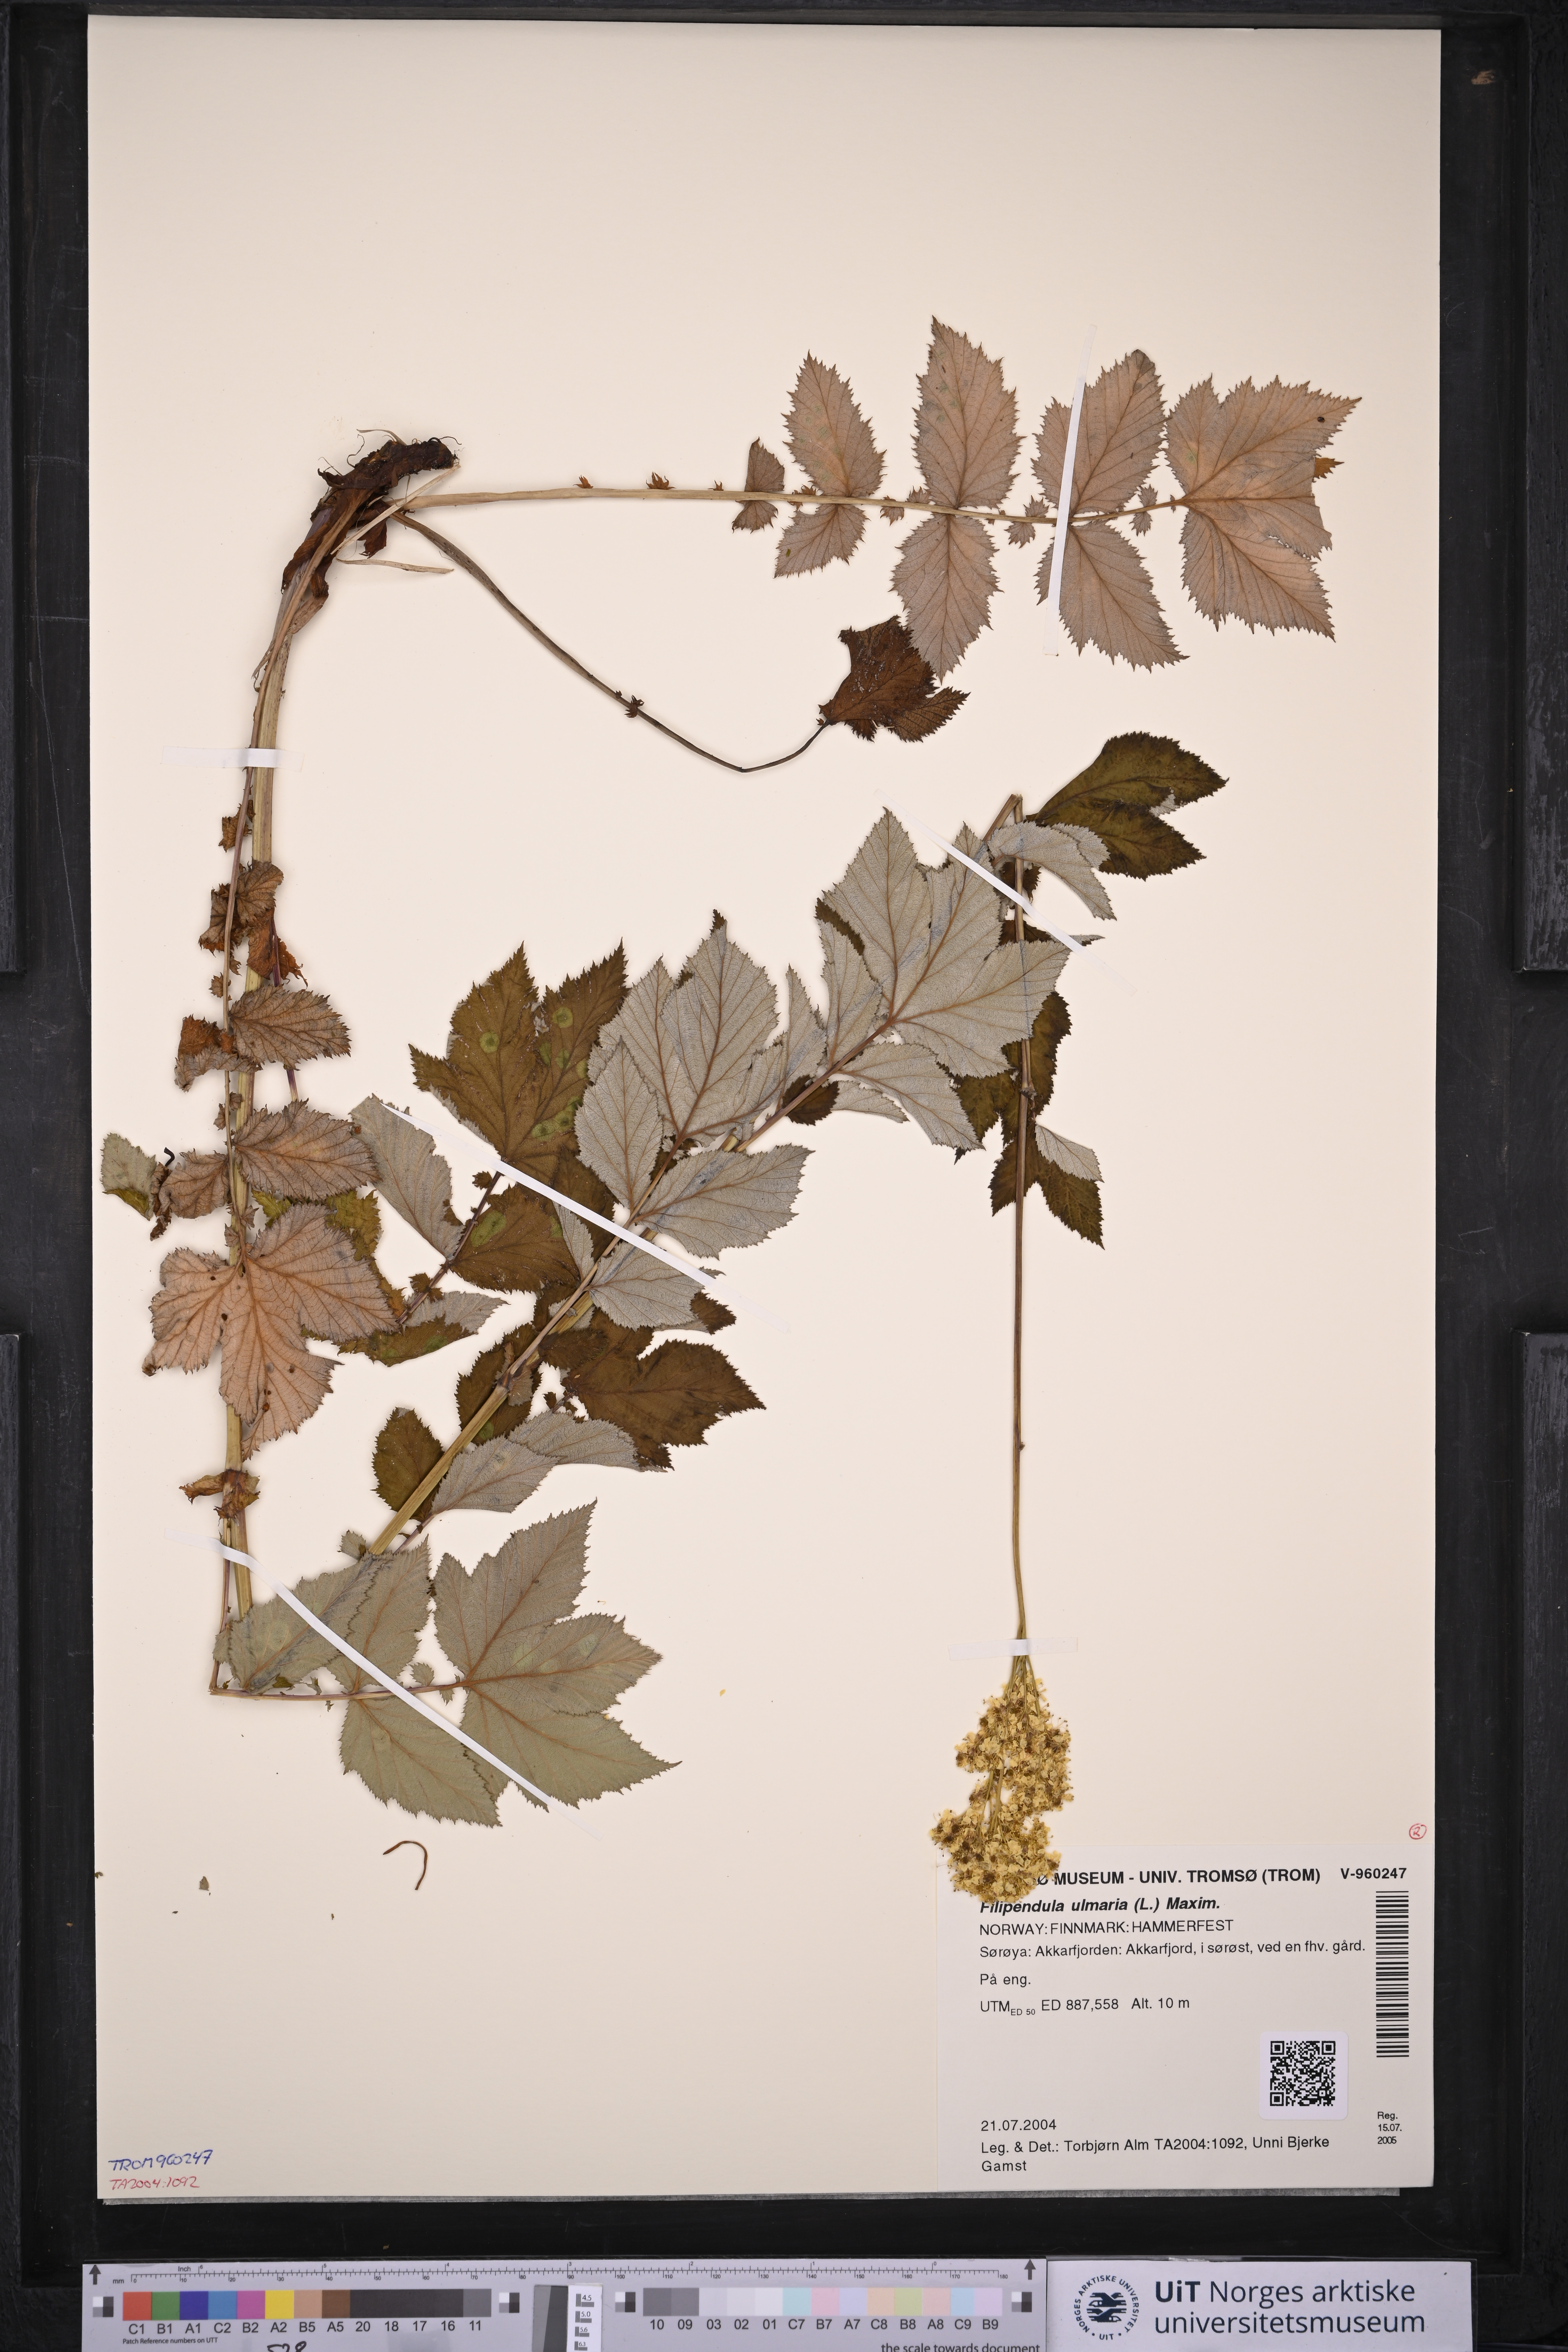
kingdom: Plantae
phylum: Tracheophyta
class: Magnoliopsida
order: Rosales
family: Rosaceae
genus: Filipendula
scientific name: Filipendula ulmaria
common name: Meadowsweet
